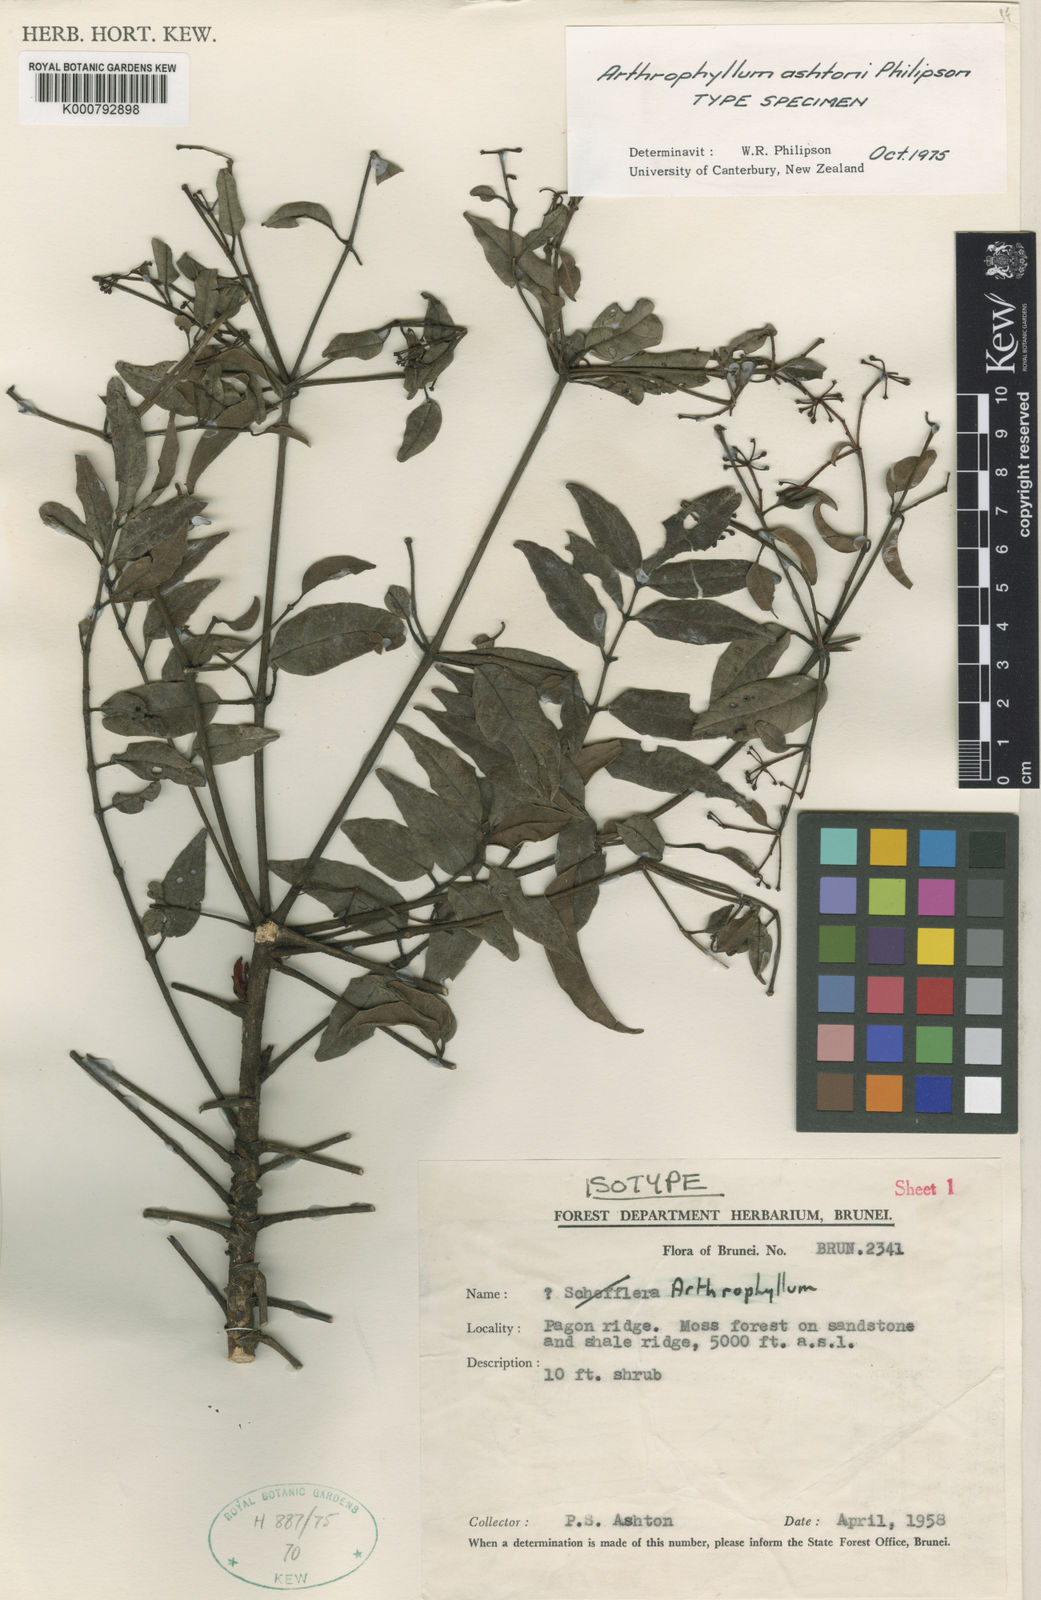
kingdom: Plantae
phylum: Tracheophyta
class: Magnoliopsida
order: Apiales
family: Araliaceae
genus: Polyscias
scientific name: Polyscias ashtonii
